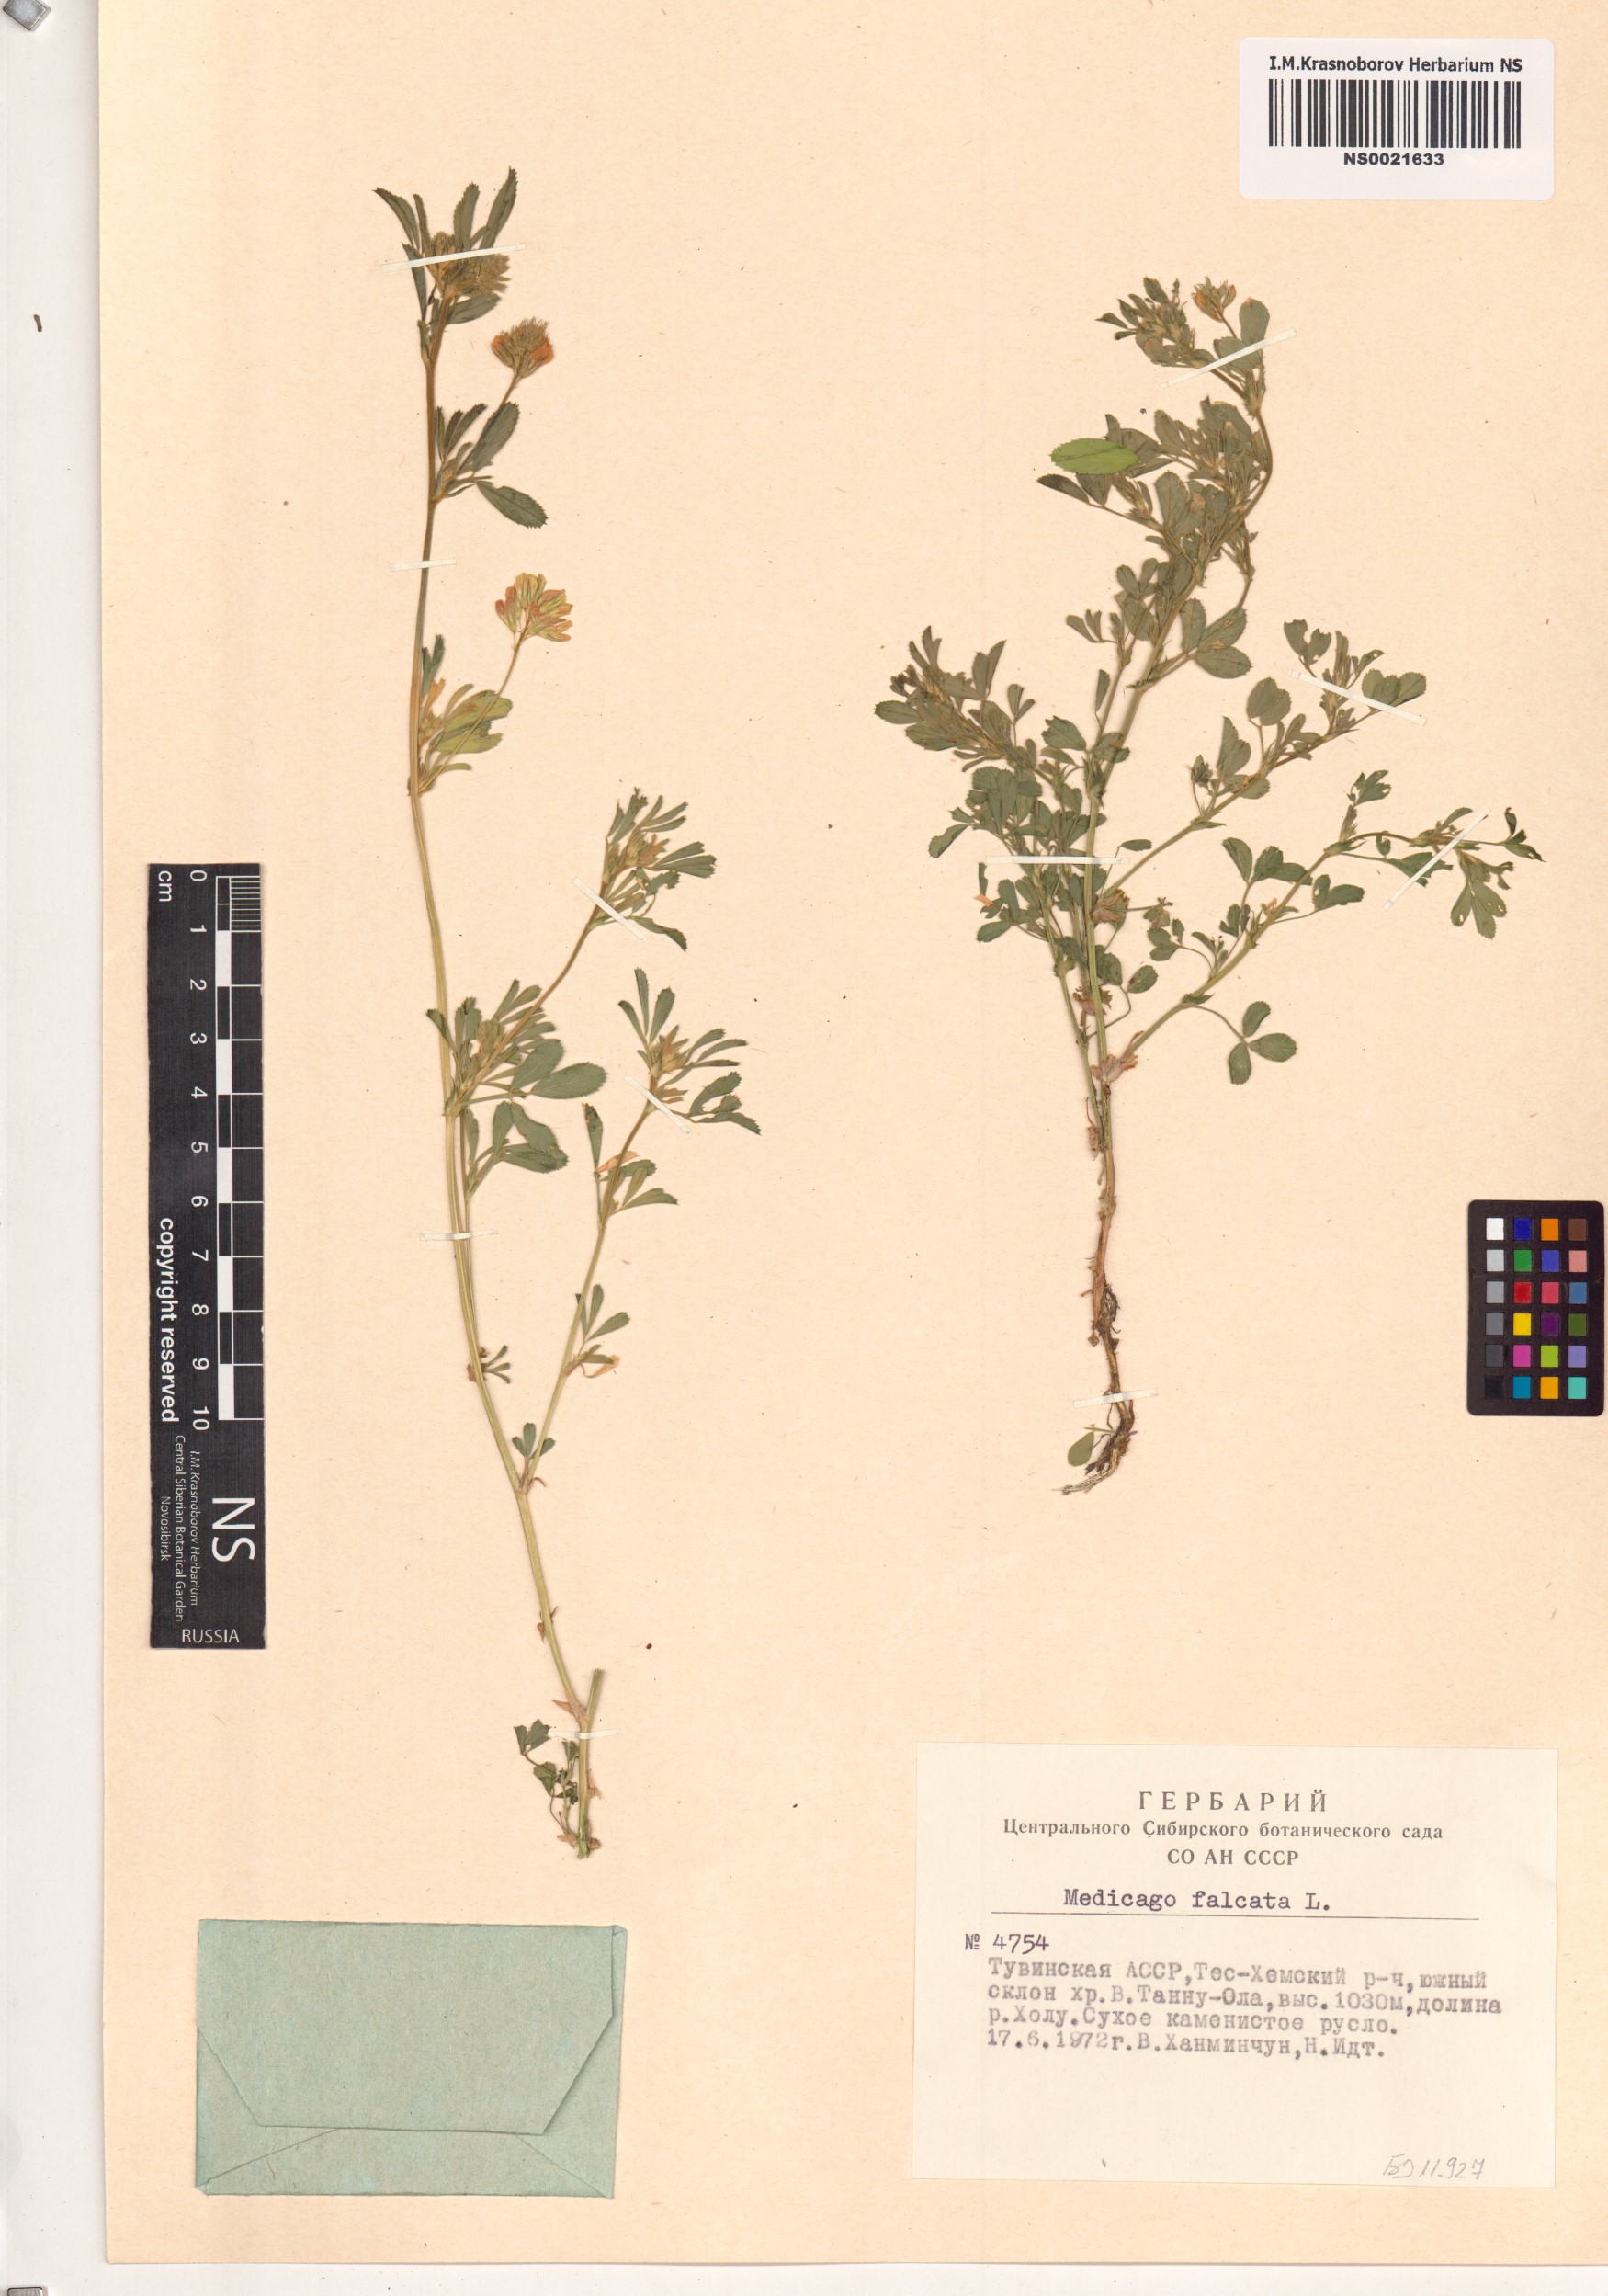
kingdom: Plantae
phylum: Tracheophyta
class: Magnoliopsida
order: Fabales
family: Fabaceae
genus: Medicago
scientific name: Medicago falcata
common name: Sickle medick
